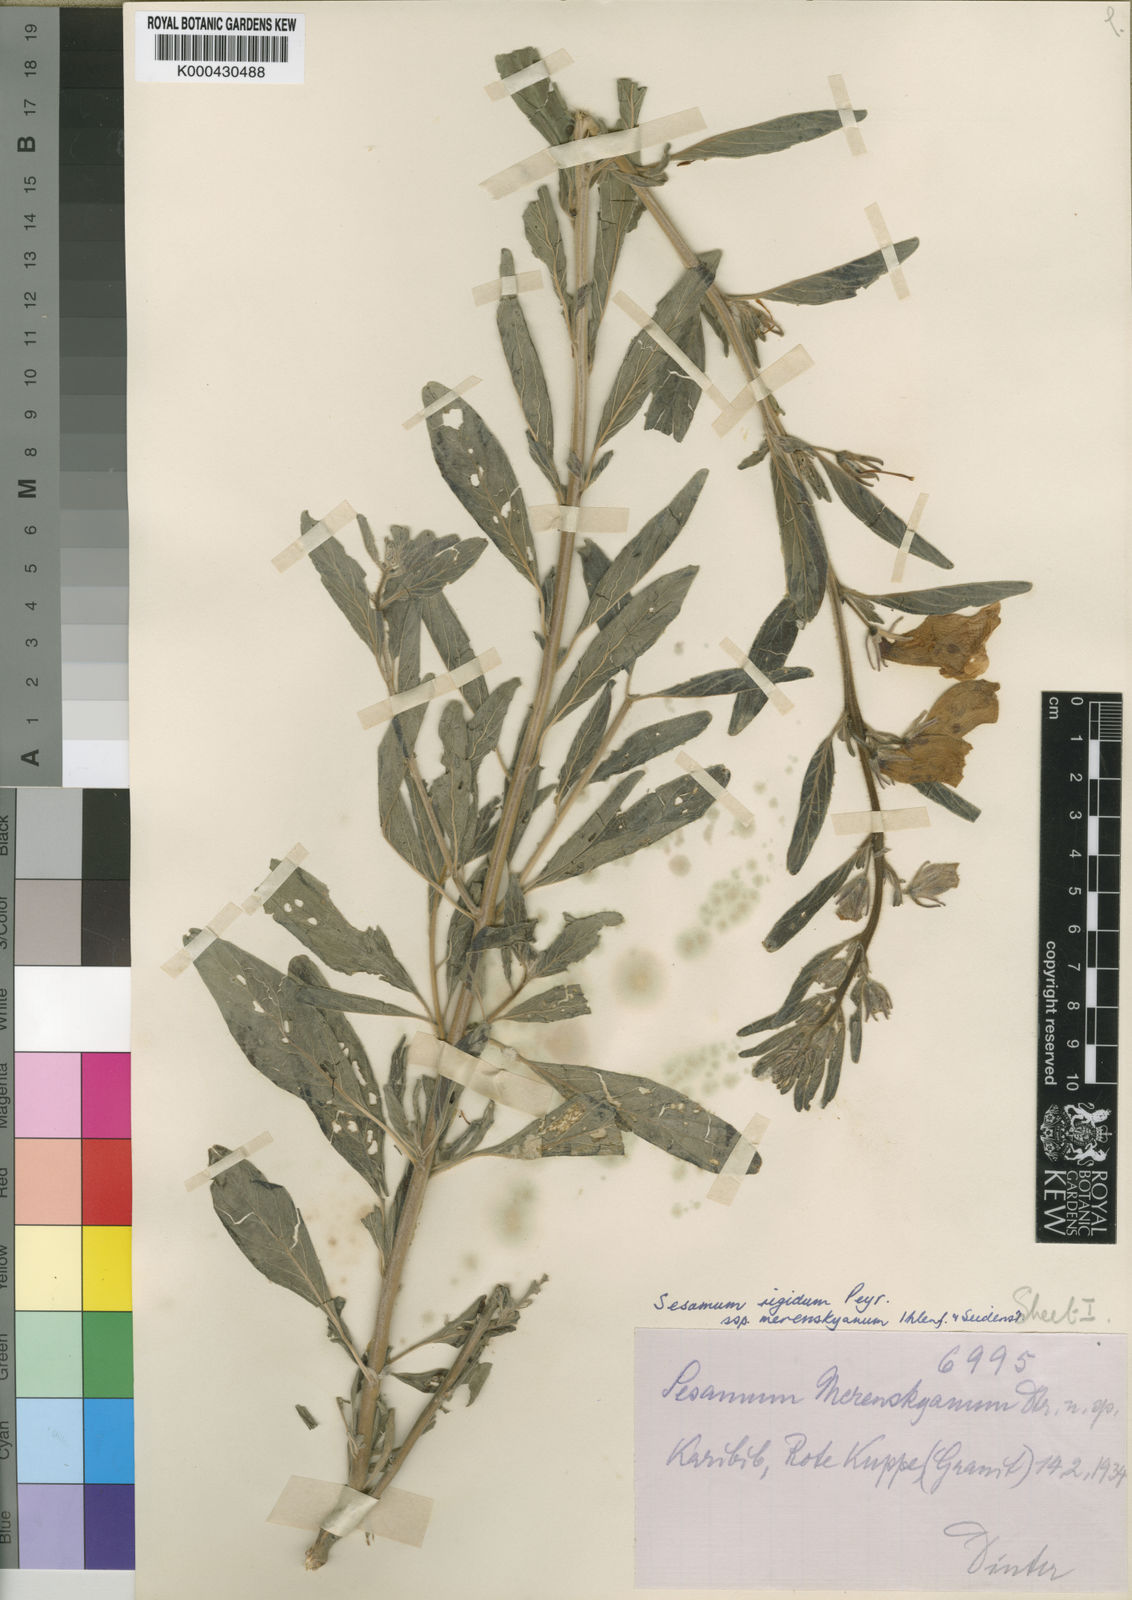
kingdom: Plantae
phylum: Tracheophyta
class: Magnoliopsida
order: Lamiales
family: Pedaliaceae
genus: Sesamum
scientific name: Sesamum rigidum
